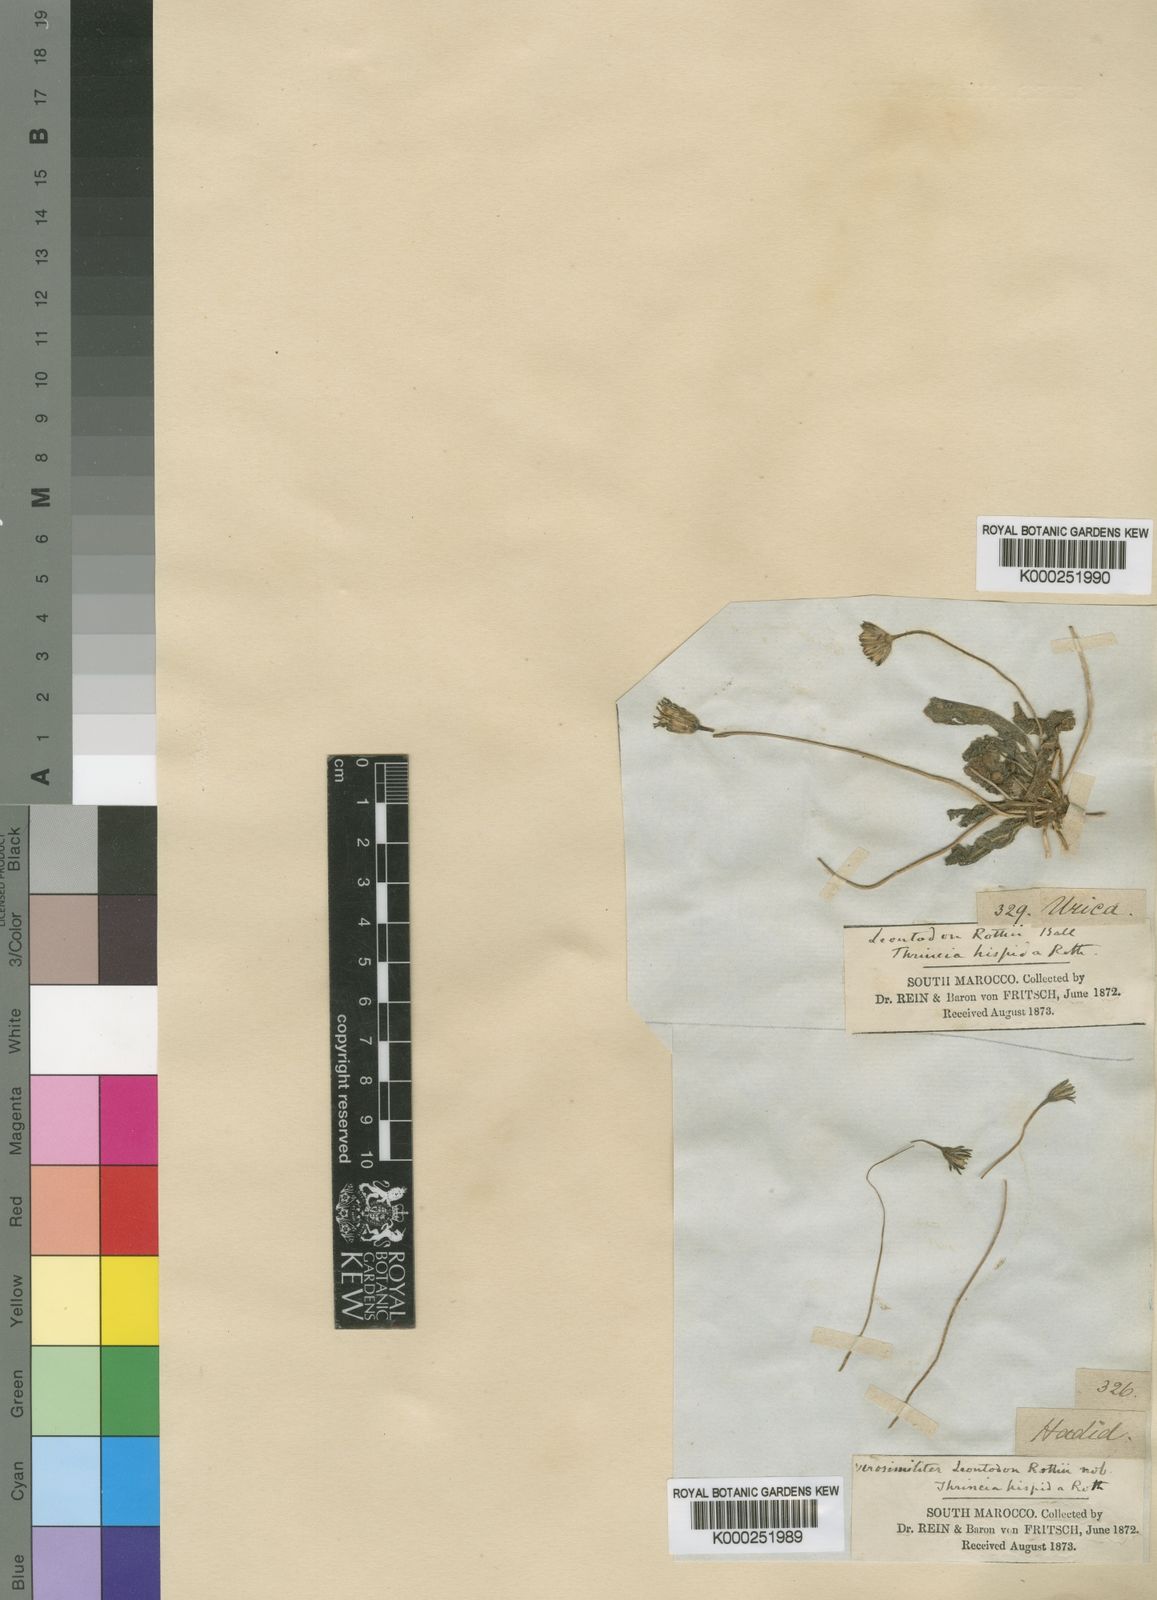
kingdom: Plantae
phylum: Tracheophyta
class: Magnoliopsida
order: Asterales
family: Asteraceae
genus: Thrincia
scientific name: Thrincia hispida
